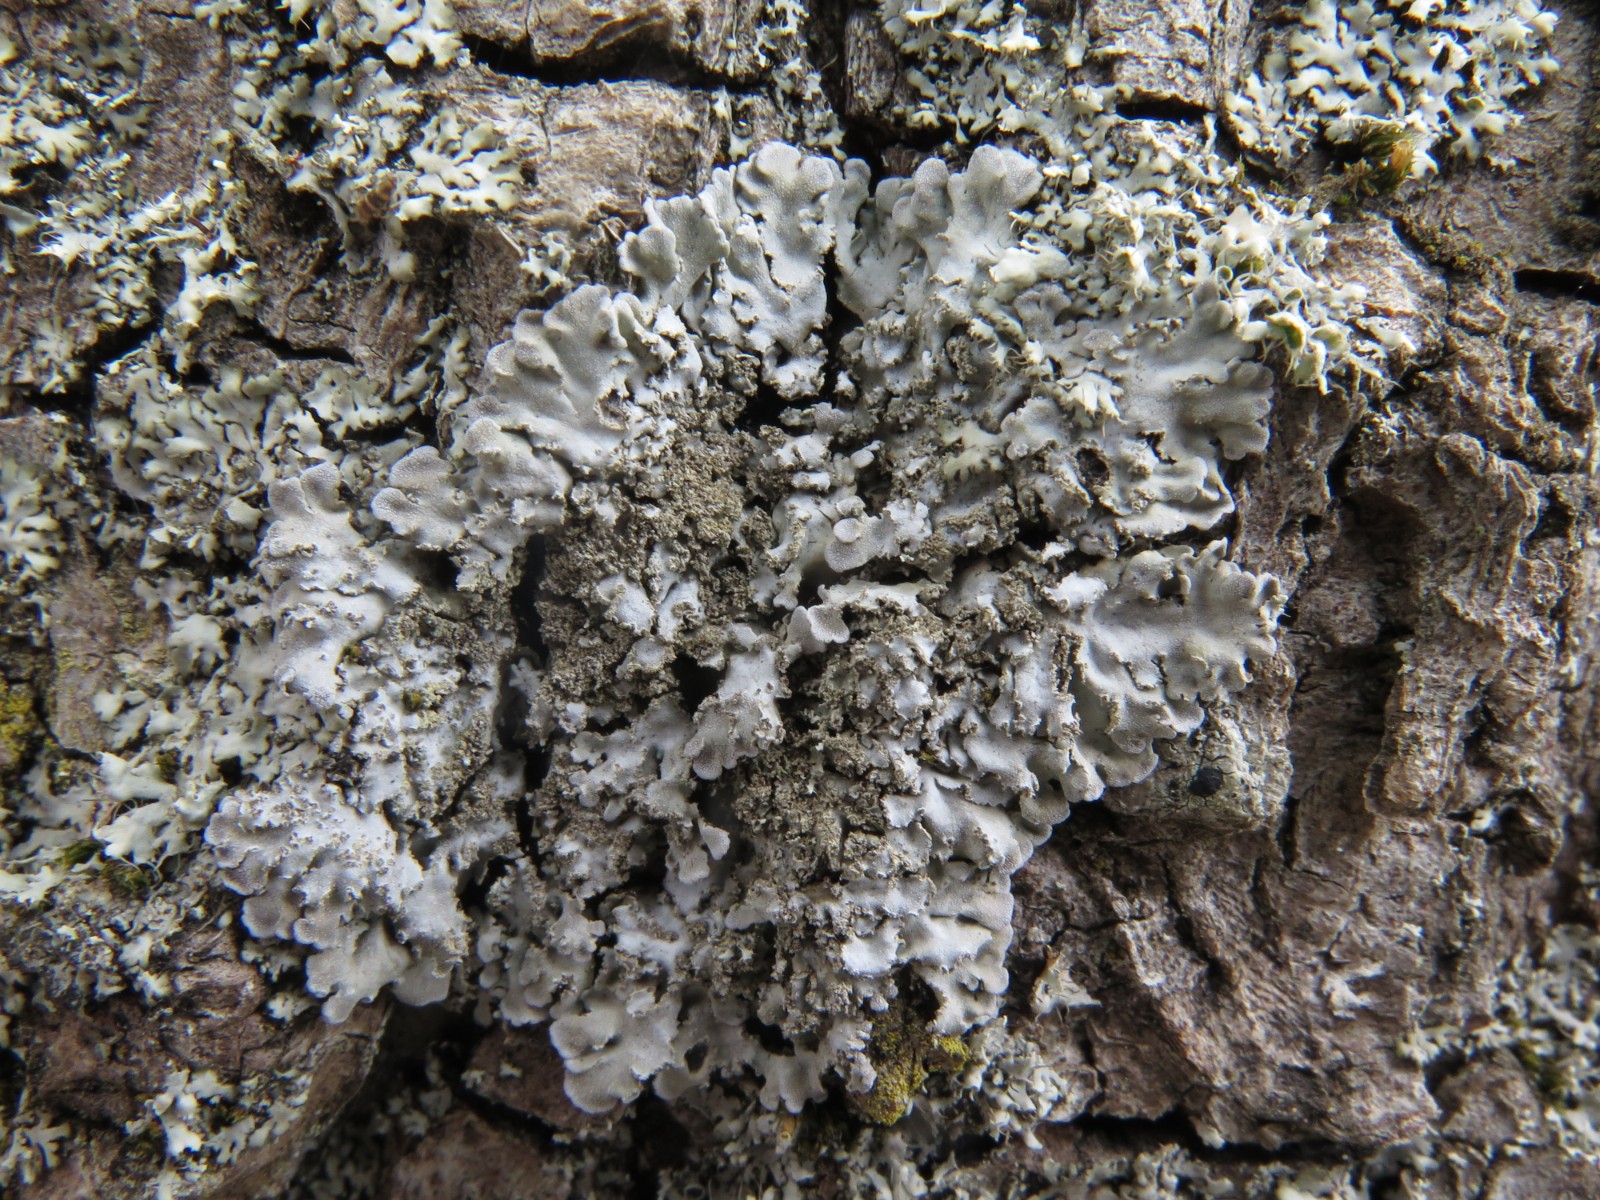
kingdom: Fungi
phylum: Ascomycota
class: Lecanoromycetes
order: Caliciales
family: Physciaceae
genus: Poeltonia
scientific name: Poeltonia grisea
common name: hvidgrå dugrosetlav
